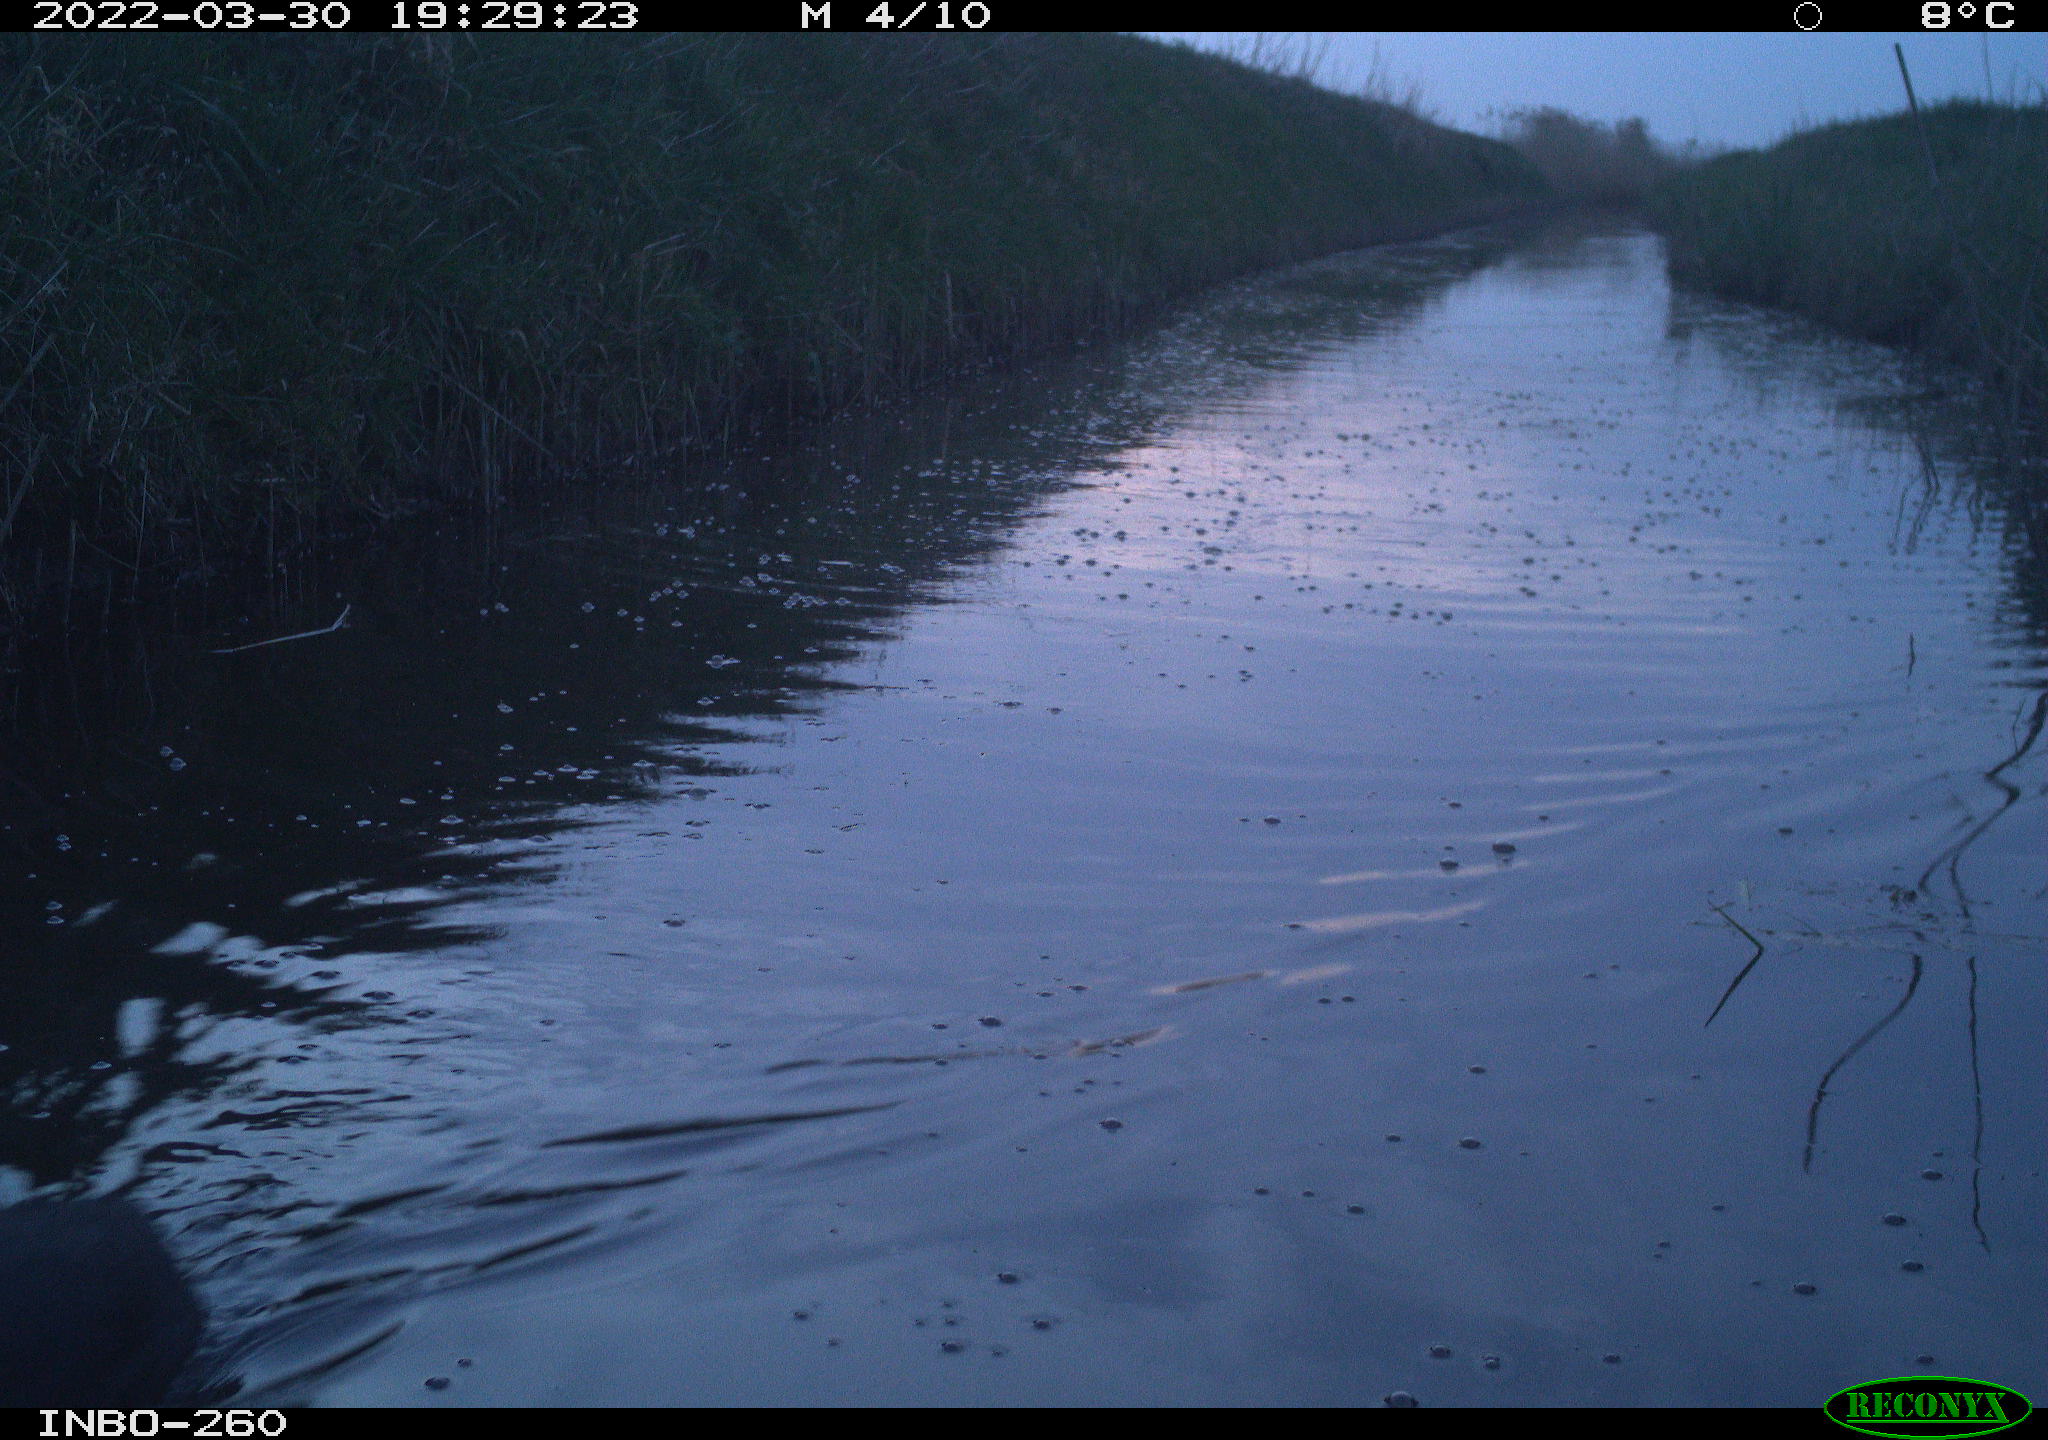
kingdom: Animalia
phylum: Chordata
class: Aves
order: Gruiformes
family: Rallidae
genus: Fulica
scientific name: Fulica atra
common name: Eurasian coot
